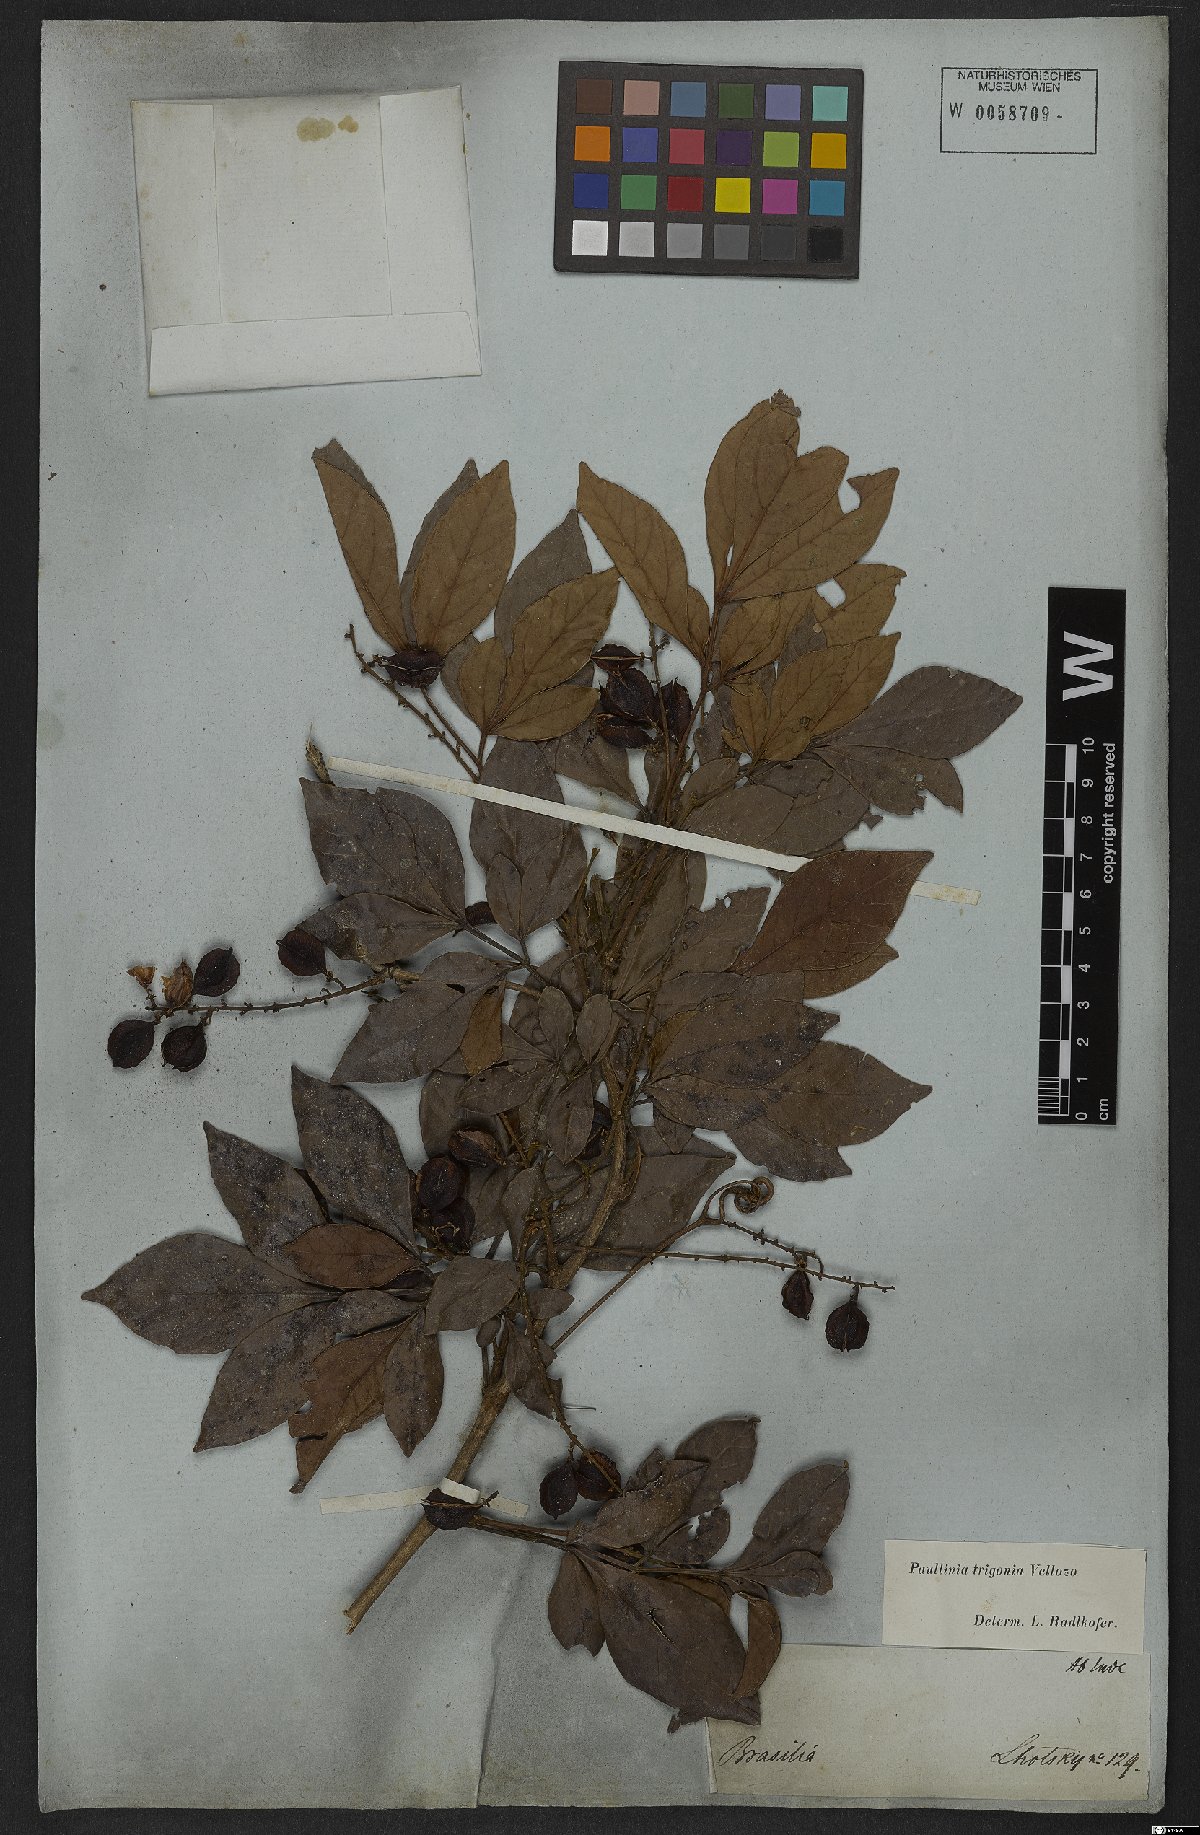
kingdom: Plantae
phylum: Tracheophyta
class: Magnoliopsida
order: Sapindales
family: Sapindaceae
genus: Paullinia
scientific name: Paullinia trigonia
